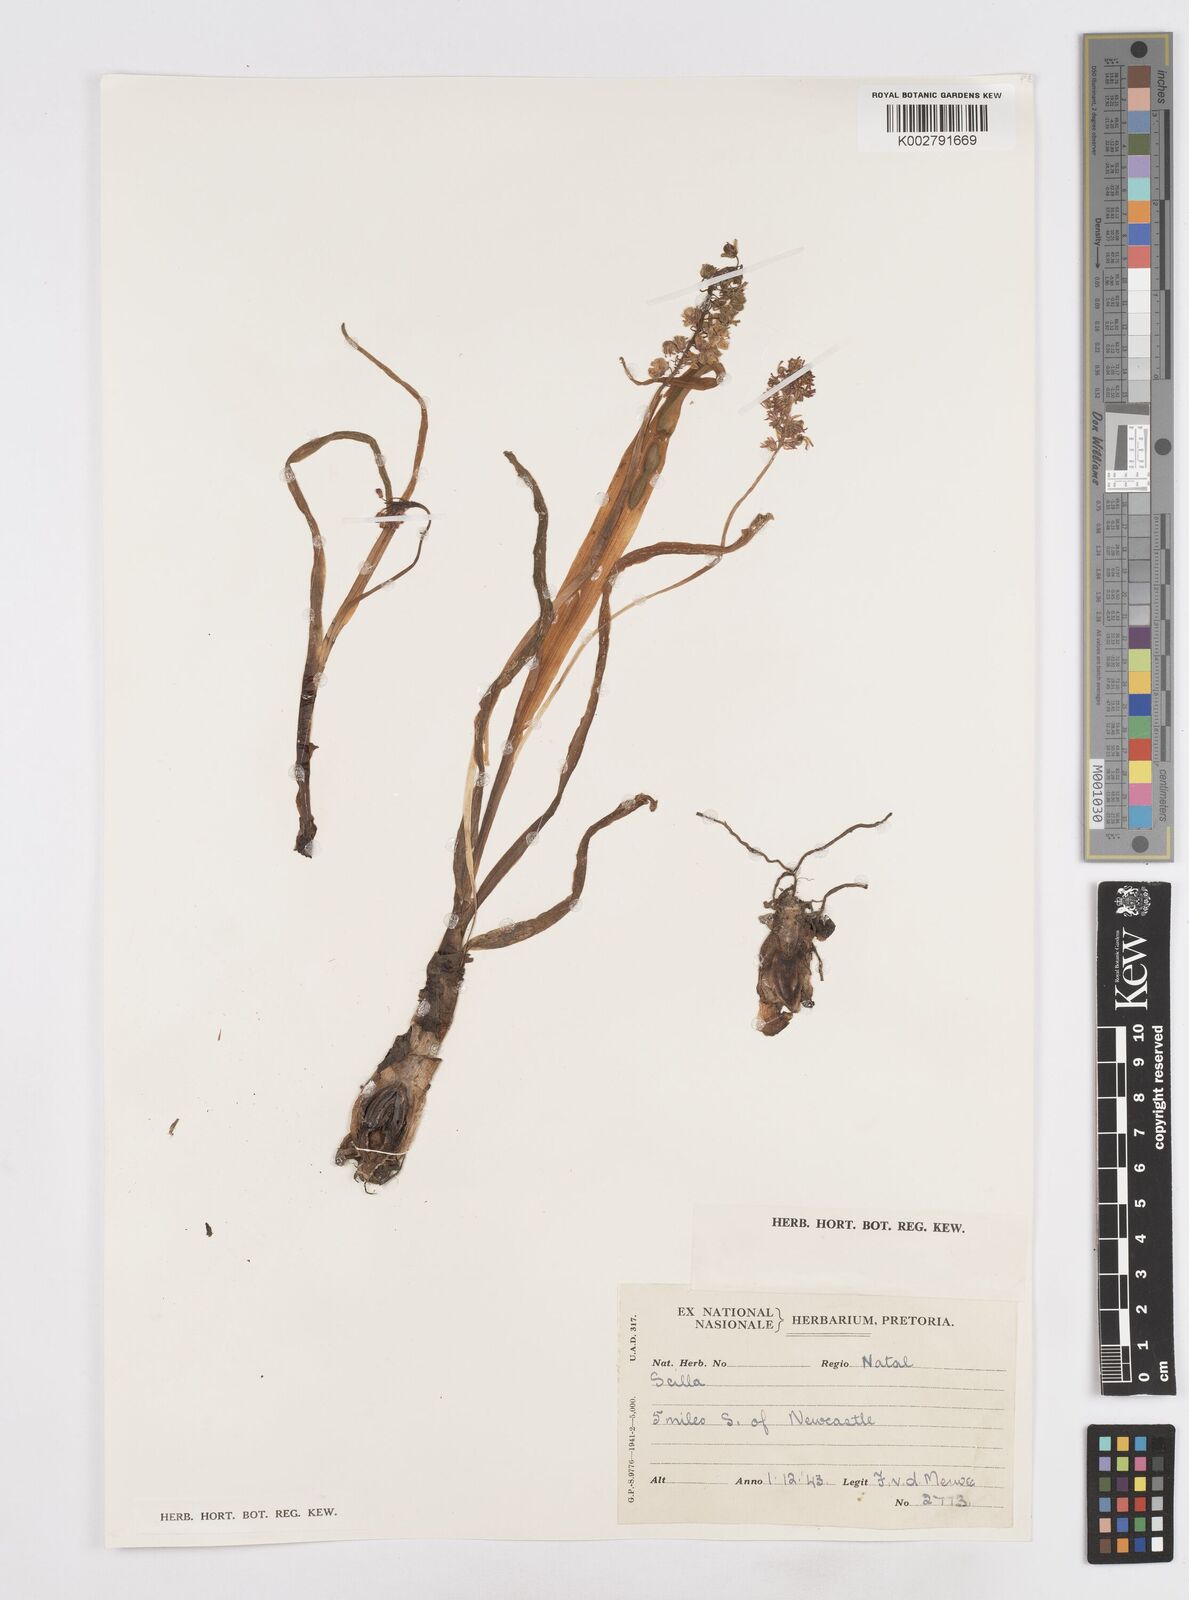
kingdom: Plantae
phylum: Tracheophyta
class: Liliopsida
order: Asparagales
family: Asparagaceae
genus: Scilla
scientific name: Scilla
